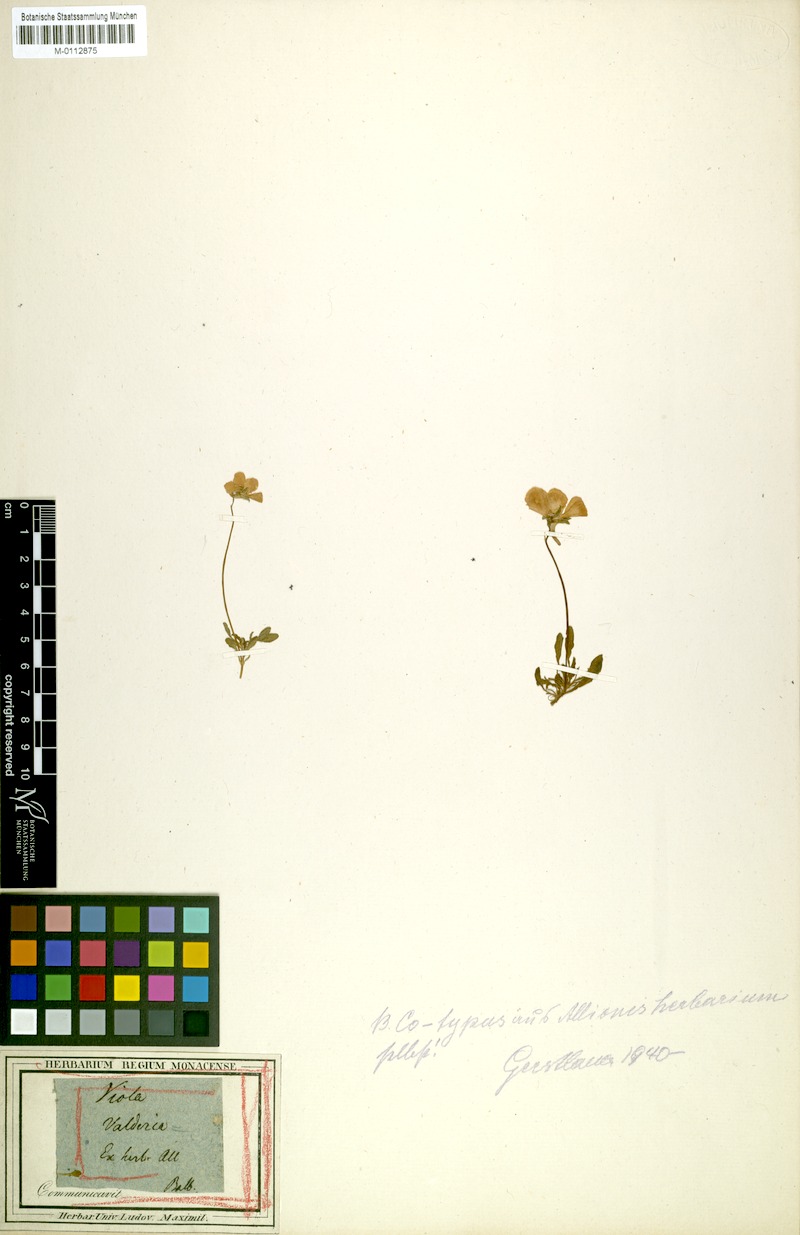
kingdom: Plantae
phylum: Tracheophyta
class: Magnoliopsida
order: Malpighiales
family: Violaceae
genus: Viola
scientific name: Viola valderia
